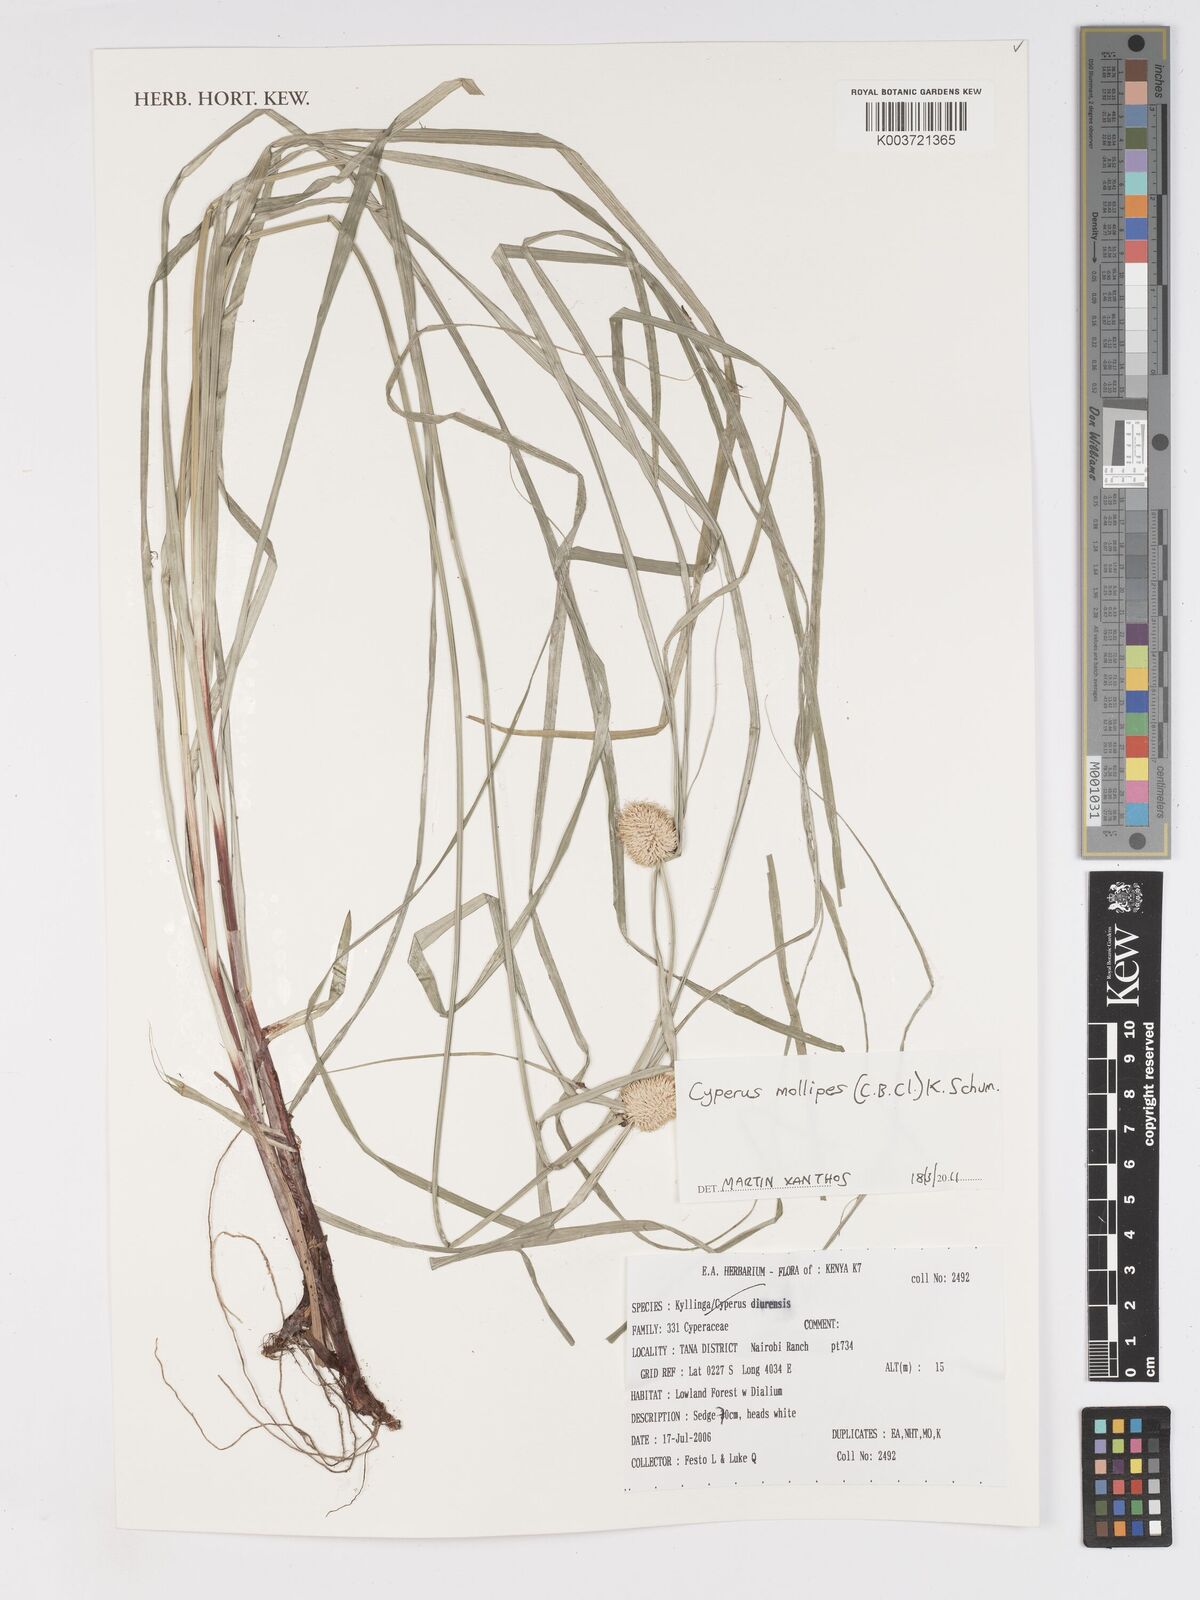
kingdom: Plantae
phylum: Tracheophyta
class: Liliopsida
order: Poales
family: Cyperaceae
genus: Cyperus
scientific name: Cyperus mollipes
